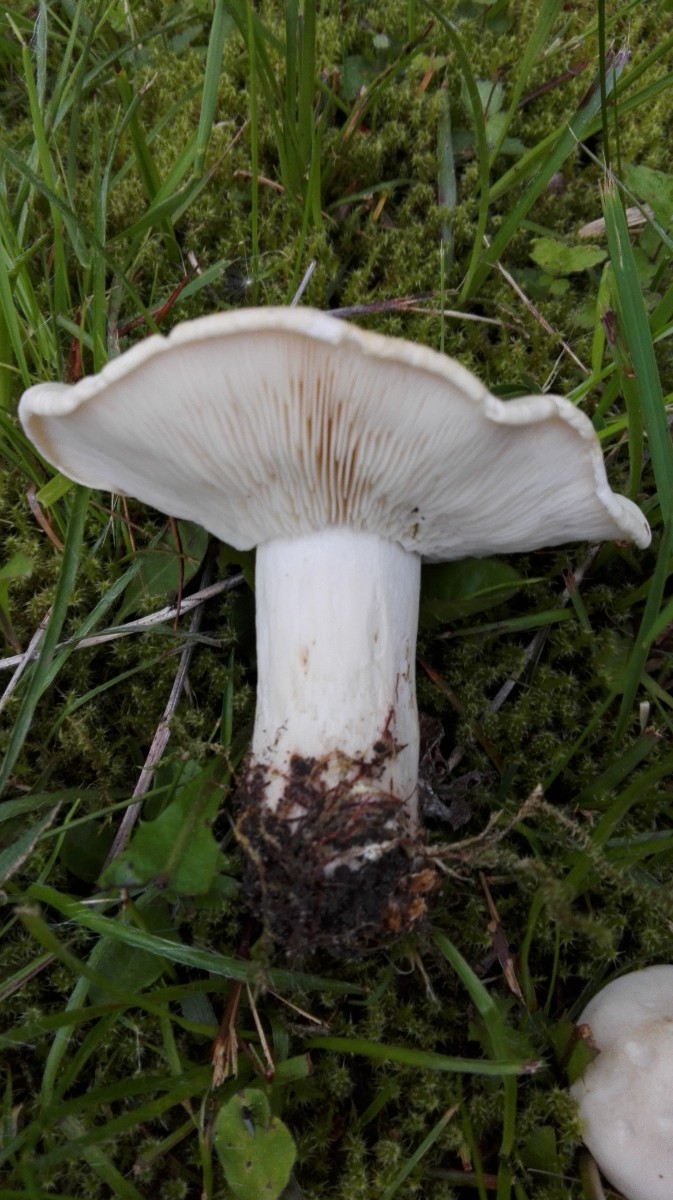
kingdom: Fungi
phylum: Basidiomycota
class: Agaricomycetes
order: Agaricales
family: Lyophyllaceae
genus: Calocybe
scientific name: Calocybe gambosa
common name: vårmusseron
